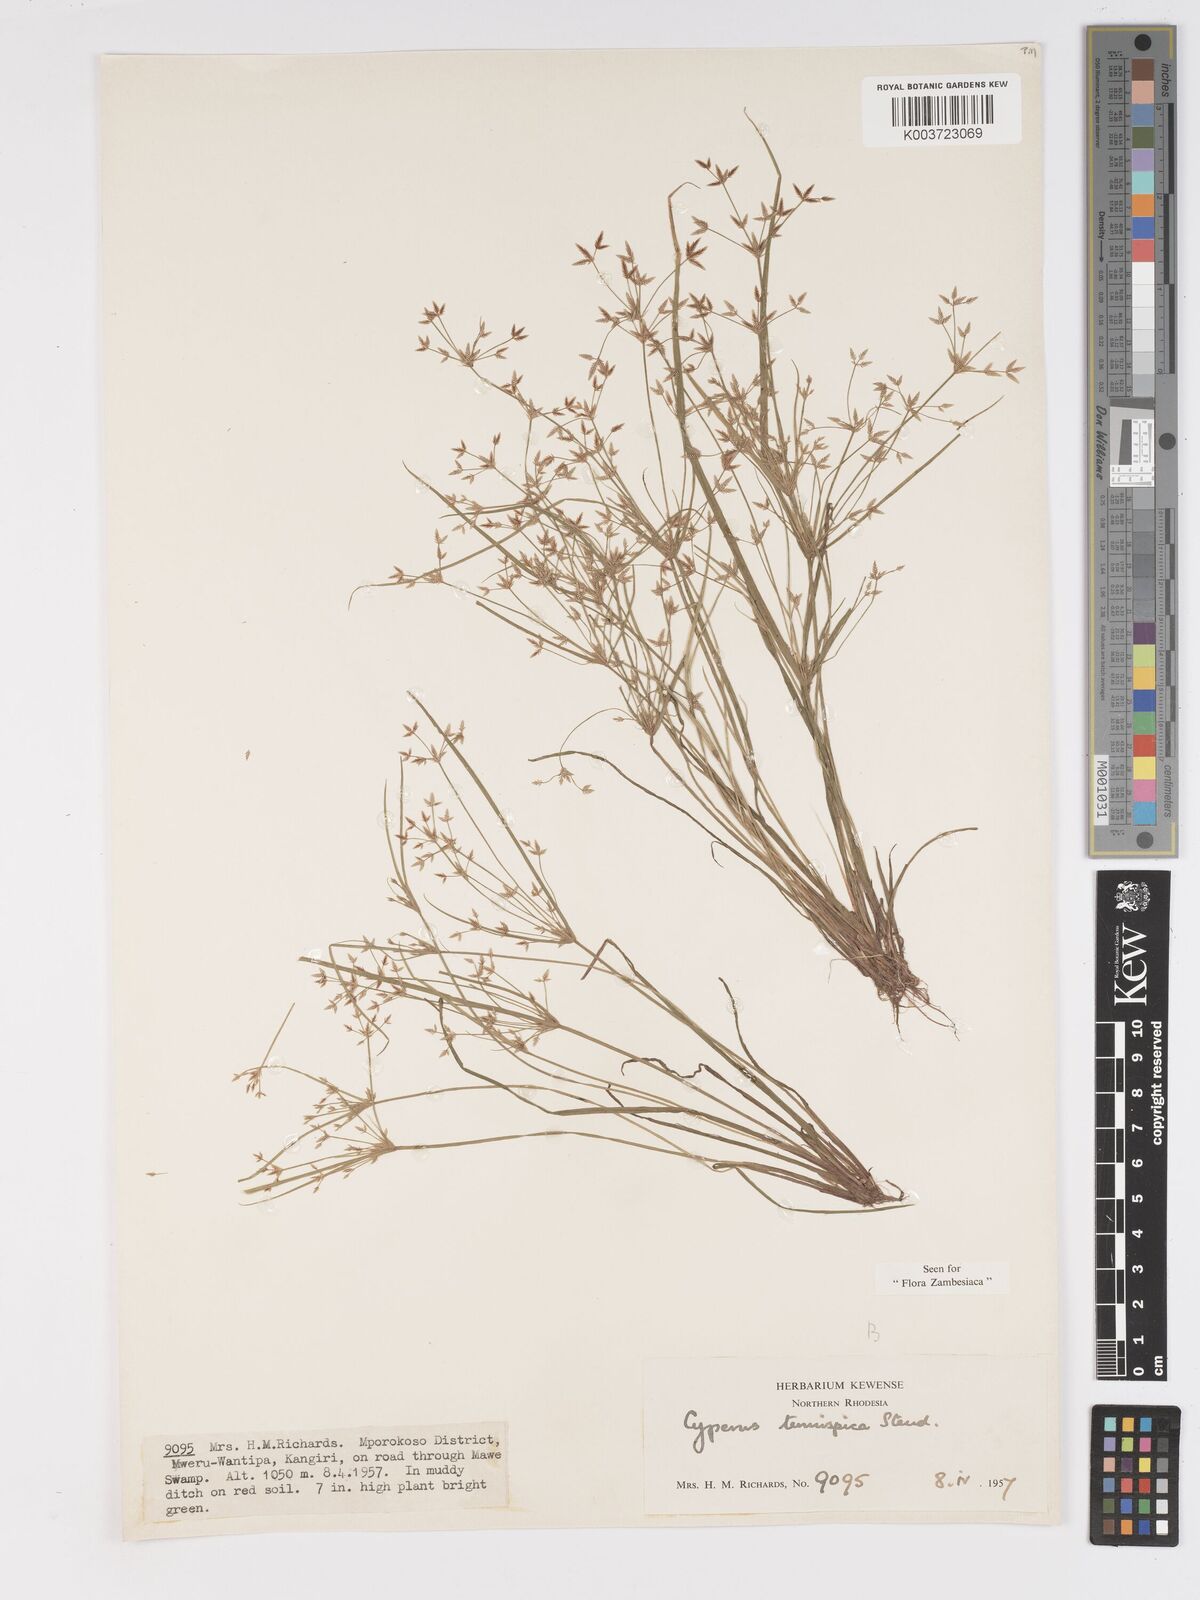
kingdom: Plantae
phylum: Tracheophyta
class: Liliopsida
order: Poales
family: Cyperaceae
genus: Cyperus
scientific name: Cyperus tenuispica
